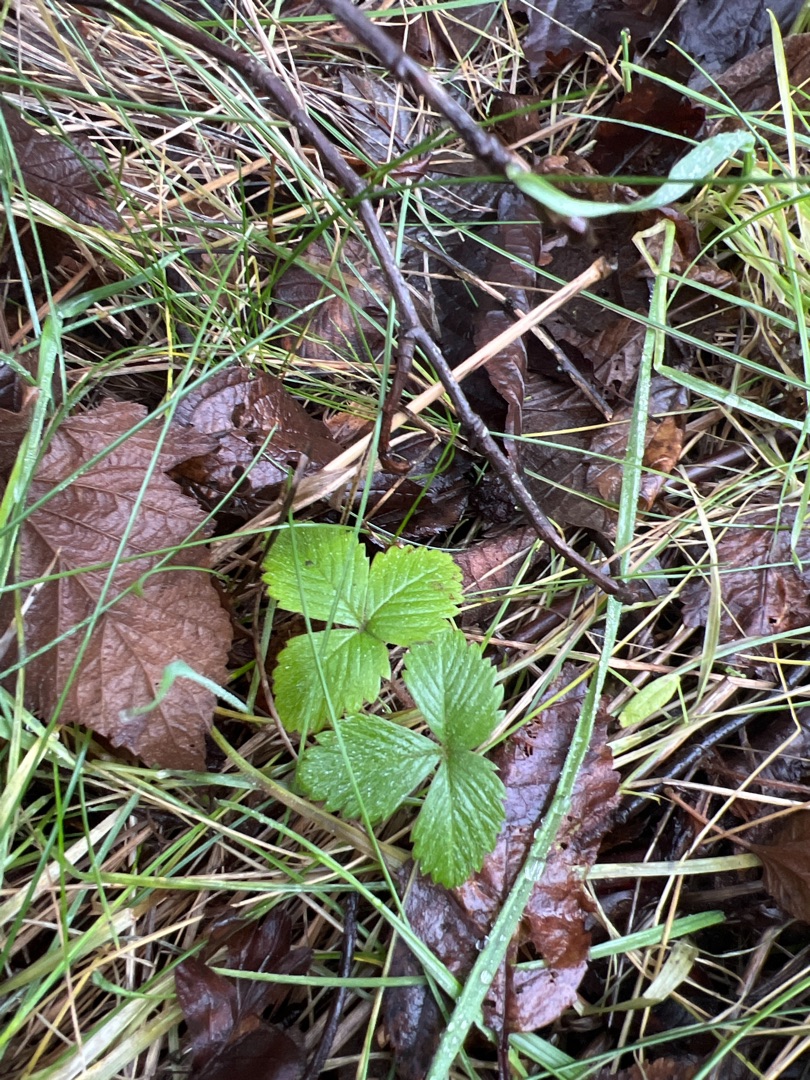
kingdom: Plantae
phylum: Tracheophyta
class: Magnoliopsida
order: Rosales
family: Rosaceae
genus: Fragaria
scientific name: Fragaria vesca
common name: Skov-jordbær
